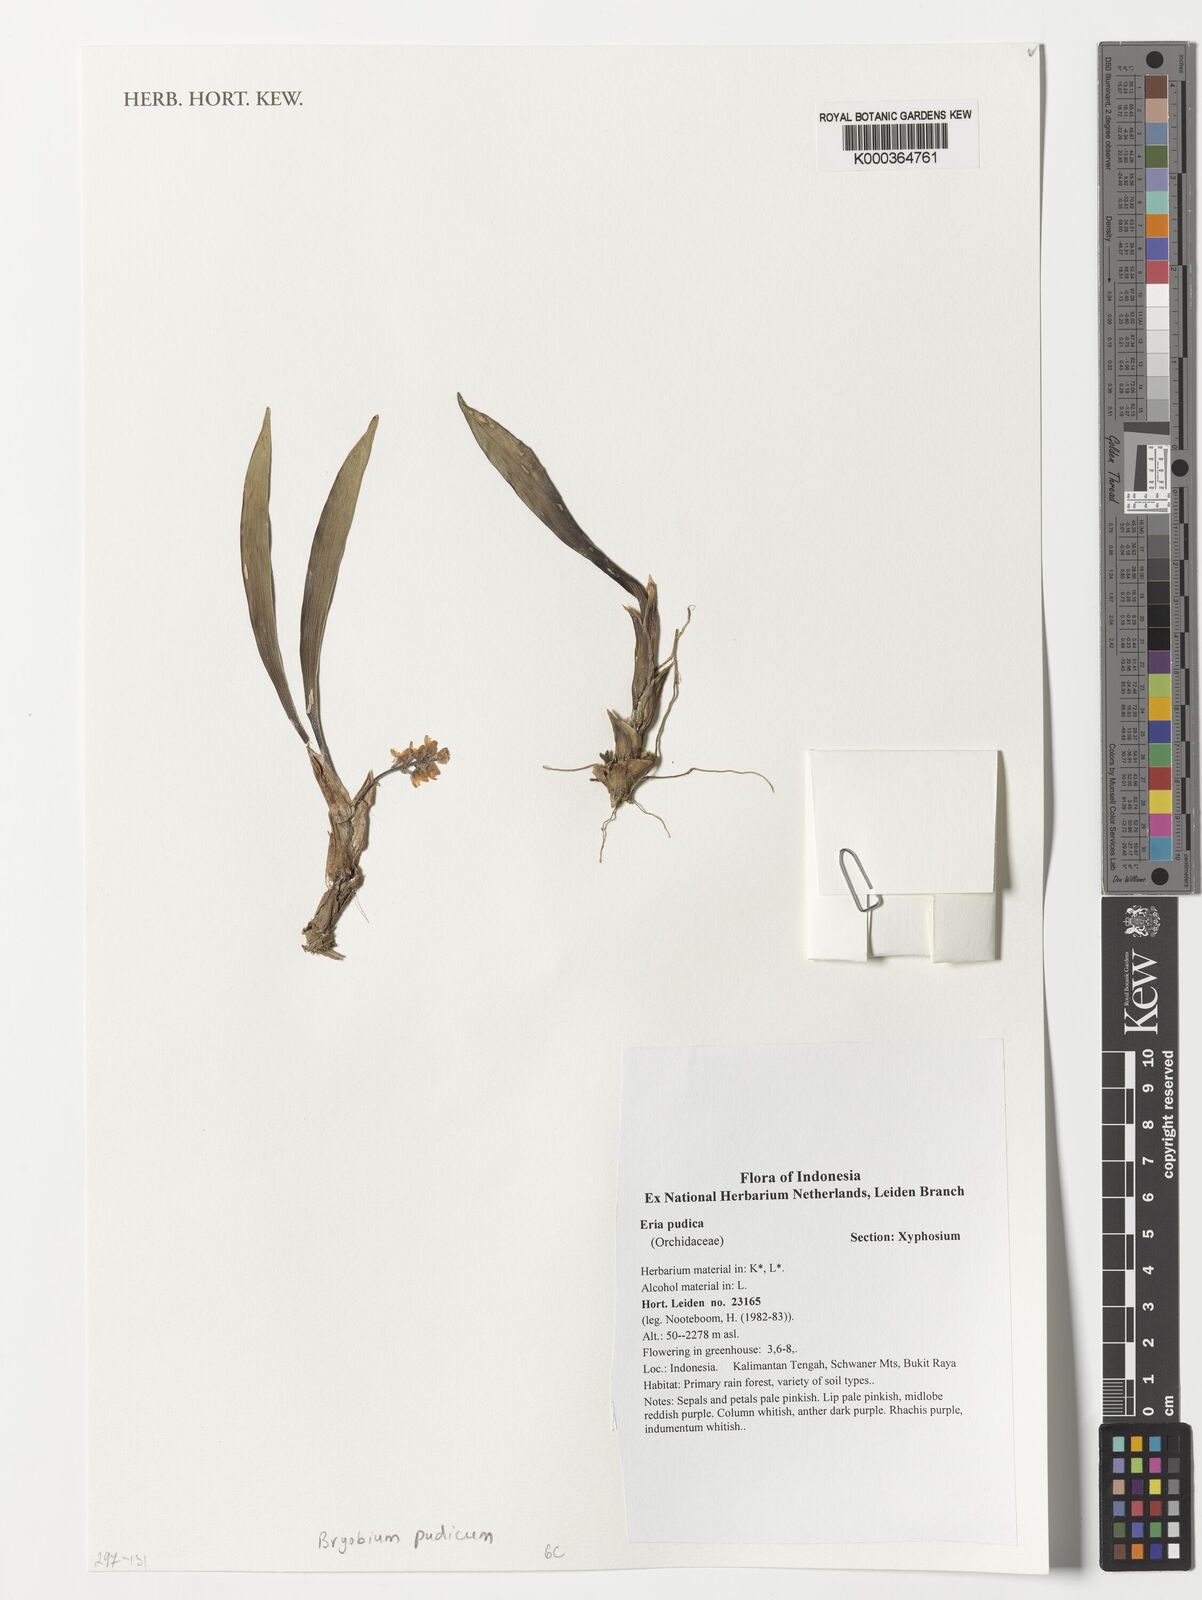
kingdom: Plantae
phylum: Tracheophyta
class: Liliopsida
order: Asparagales
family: Orchidaceae
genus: Bryobium
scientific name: Bryobium pudicum
